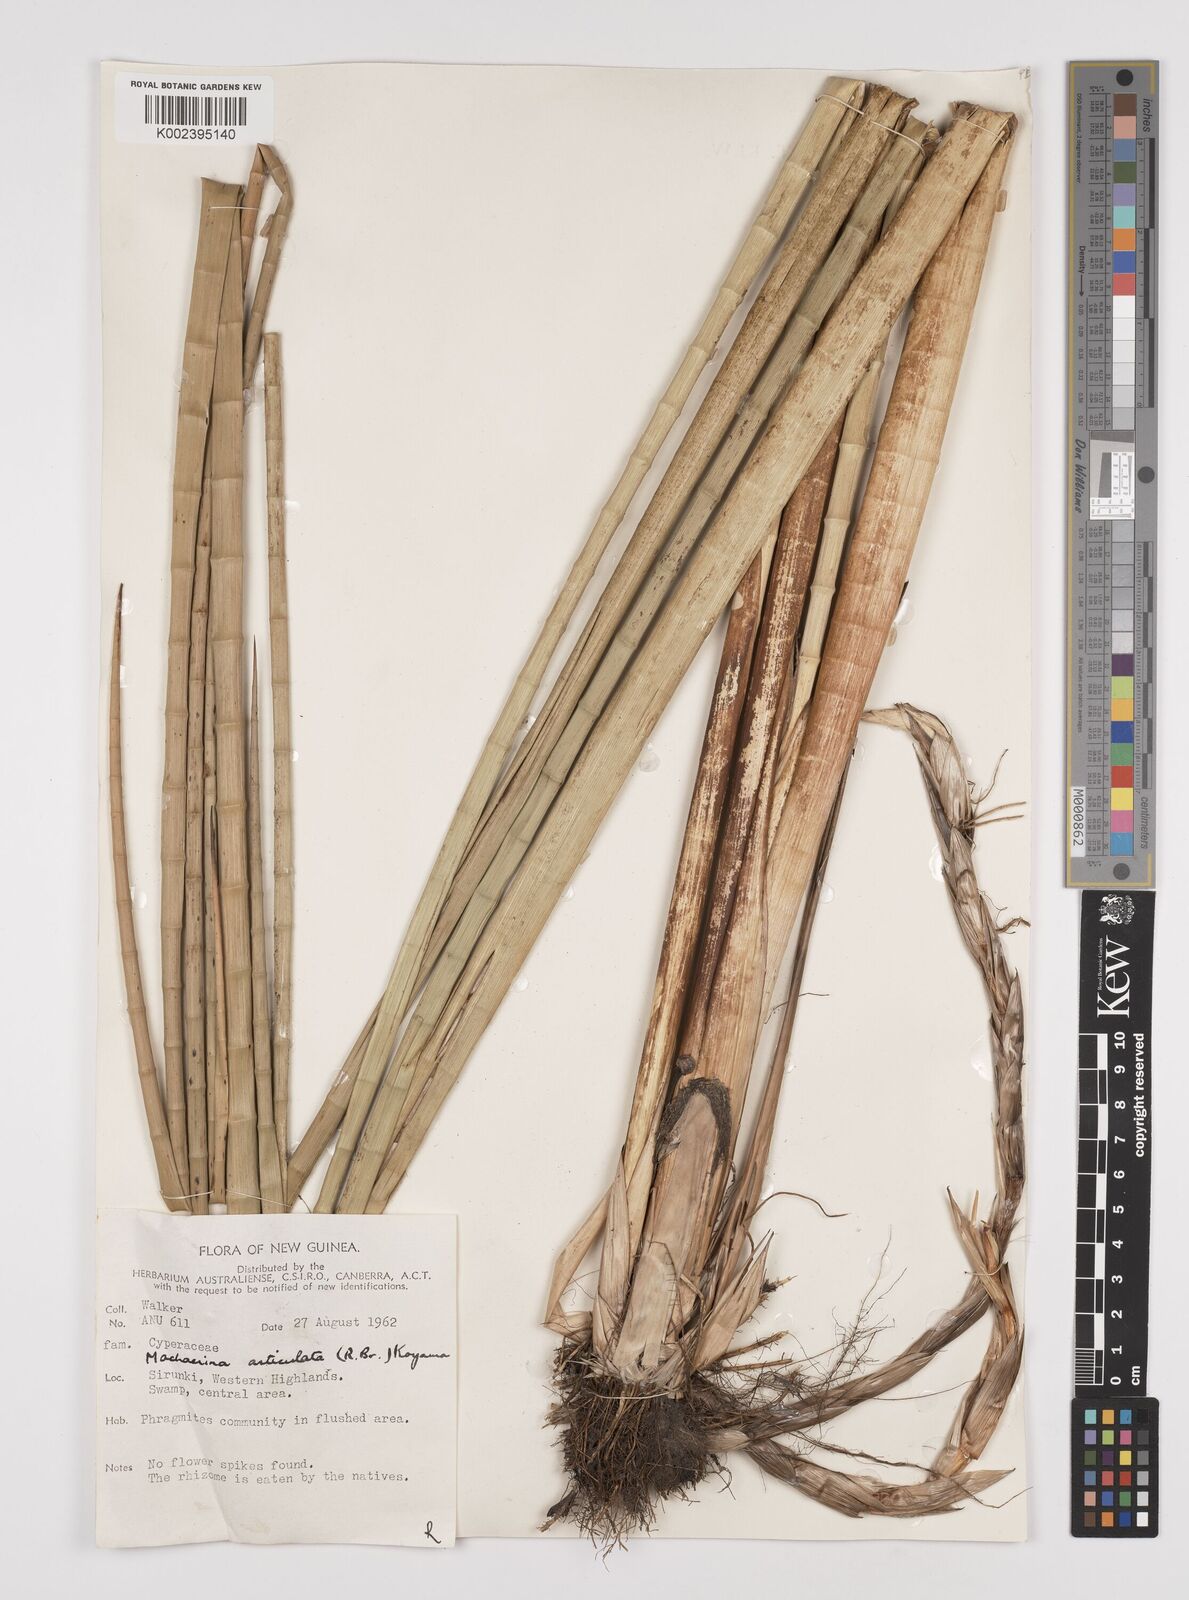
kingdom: Plantae
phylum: Tracheophyta
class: Liliopsida
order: Poales
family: Cyperaceae
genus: Machaerina
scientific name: Machaerina articulata
